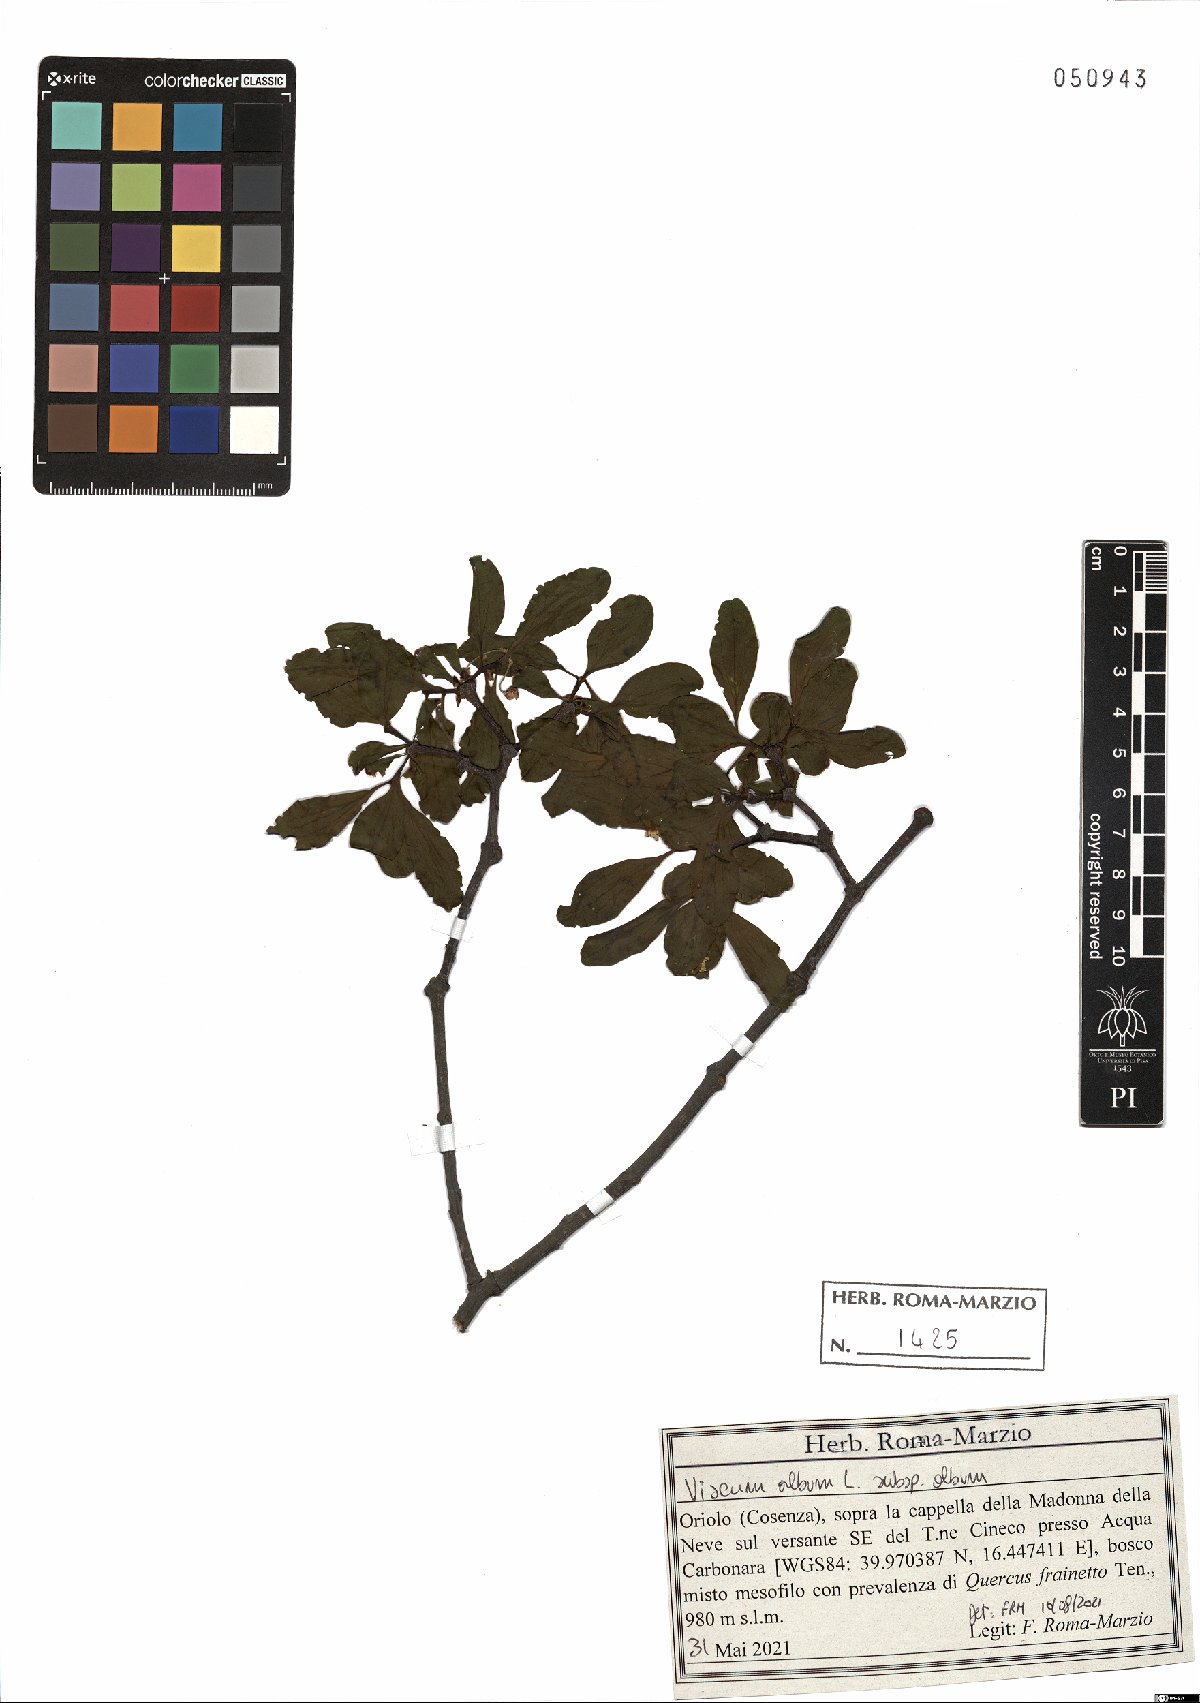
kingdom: Plantae
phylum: Tracheophyta
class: Magnoliopsida
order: Santalales
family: Viscaceae
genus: Viscum
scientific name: Viscum album
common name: Mistletoe
